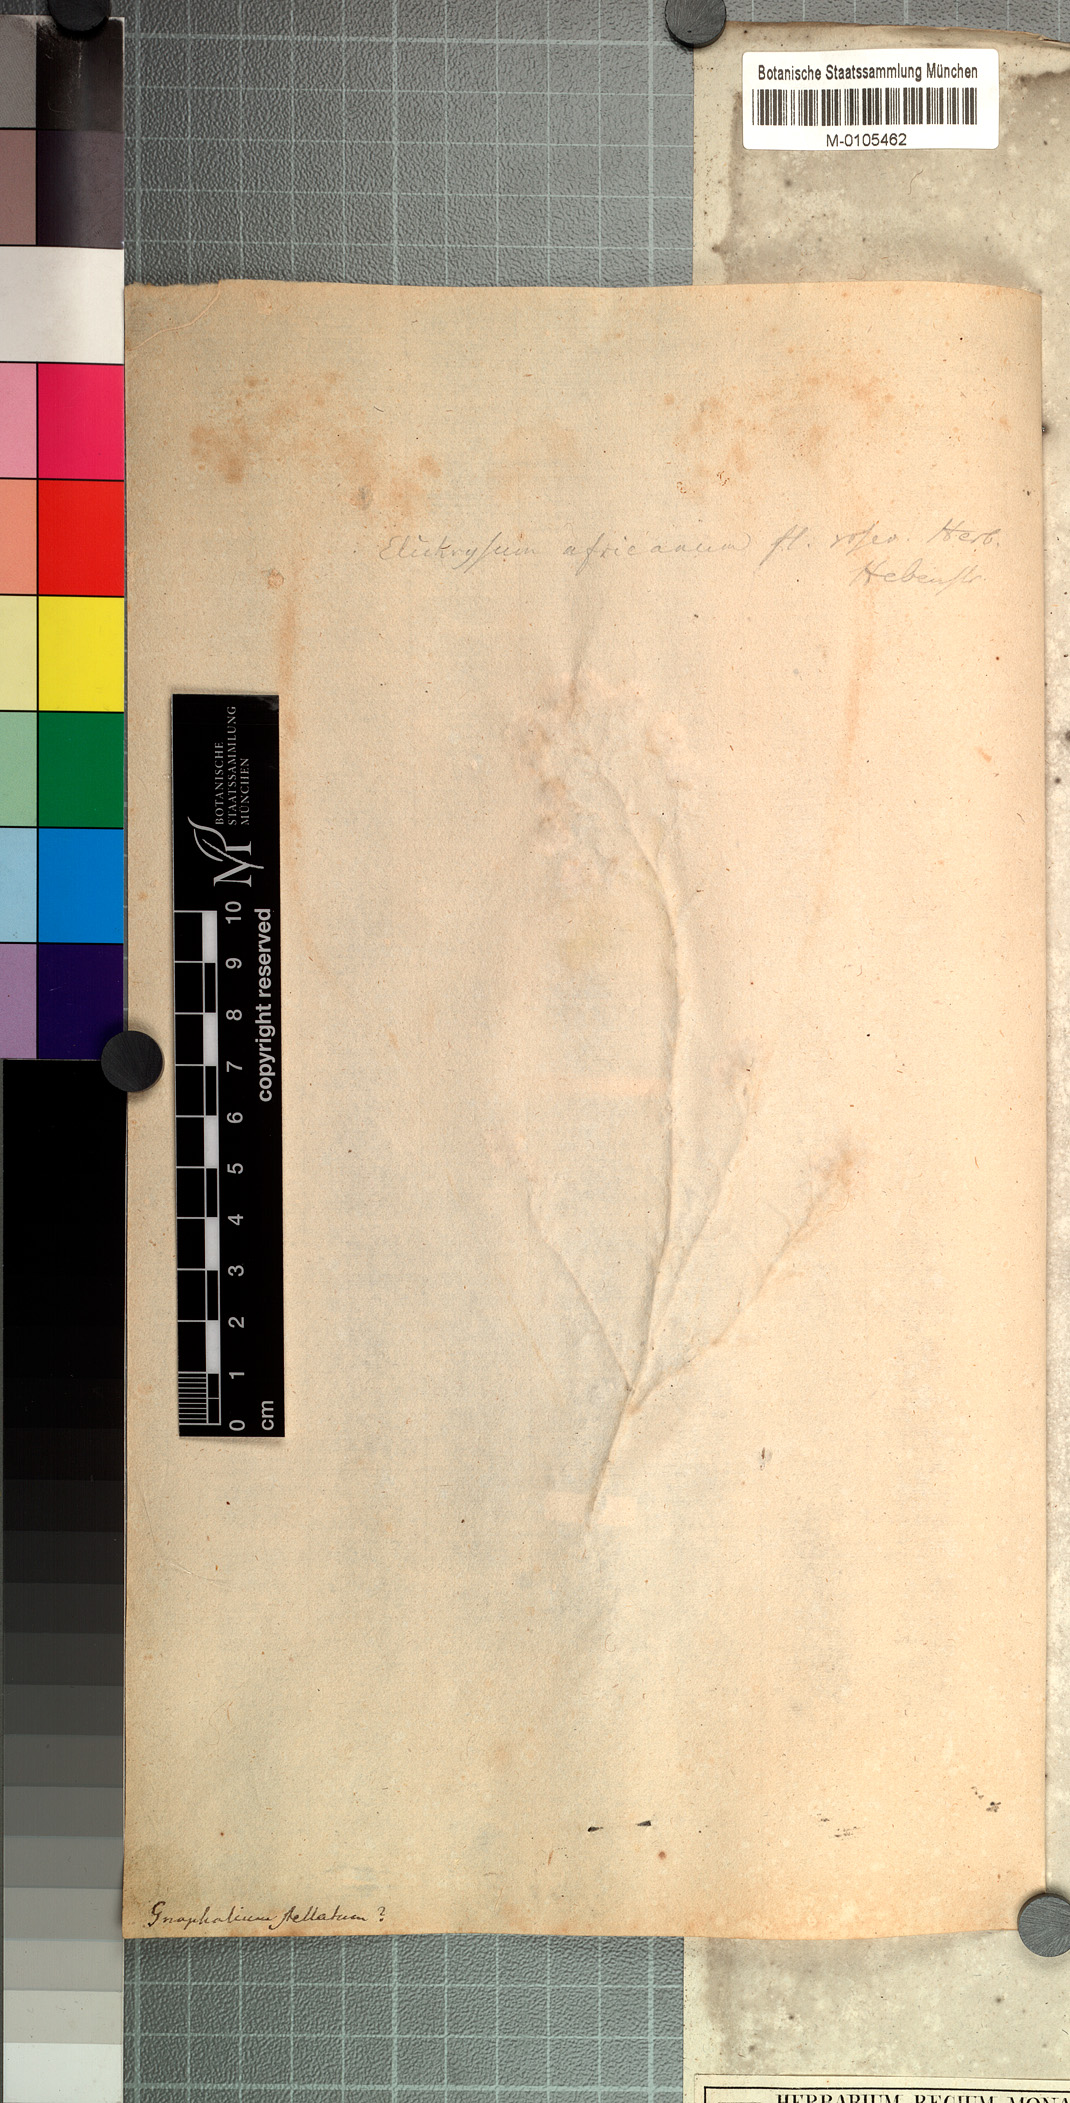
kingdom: Plantae
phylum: Tracheophyta
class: Magnoliopsida
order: Asterales
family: Asteraceae
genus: Helichrysum
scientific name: Helichrysum stellatum
